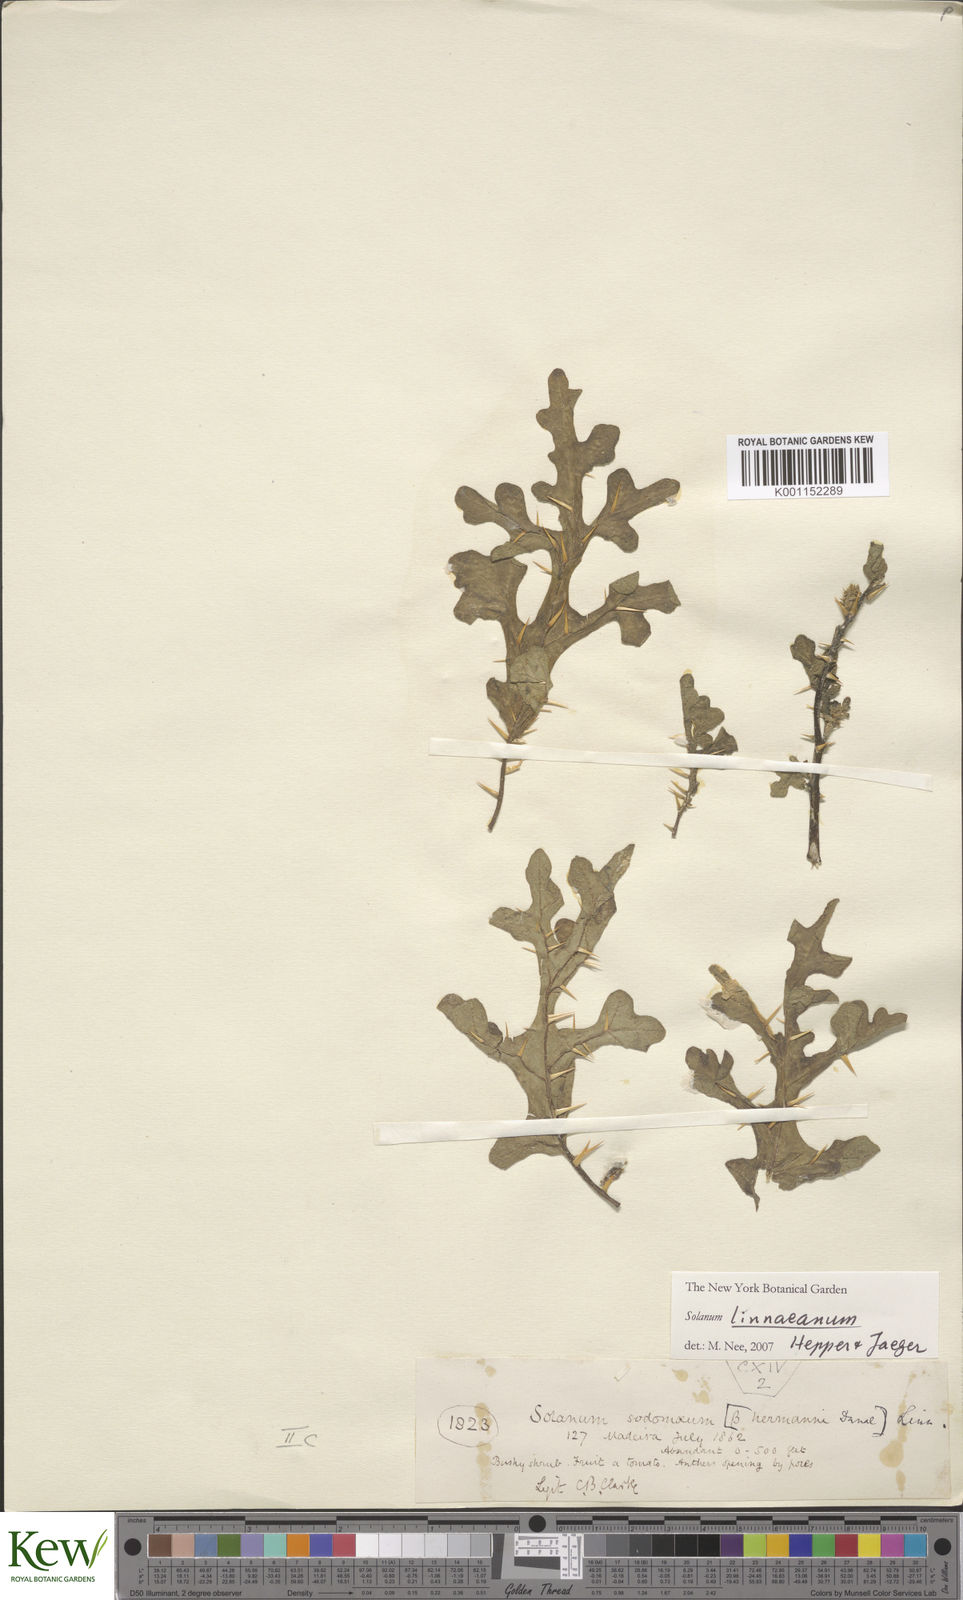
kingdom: Plantae
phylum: Tracheophyta
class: Magnoliopsida
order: Solanales
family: Solanaceae
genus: Solanum
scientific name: Solanum linnaeanum
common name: Nightshade
